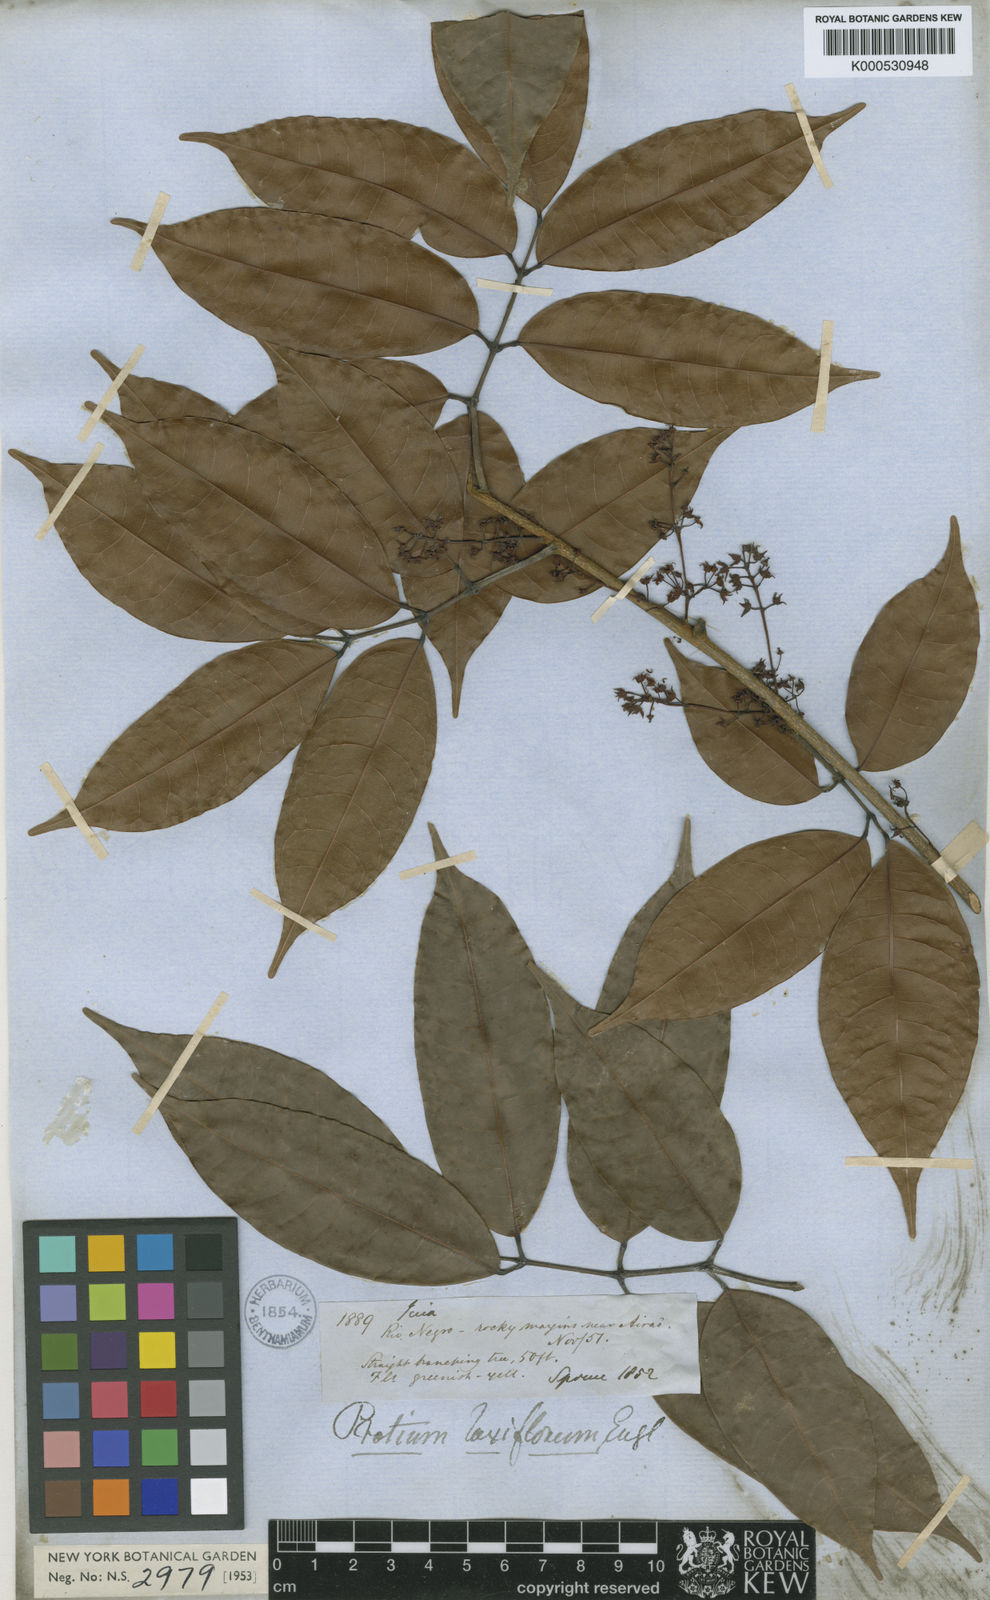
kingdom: Plantae
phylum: Tracheophyta
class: Magnoliopsida
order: Sapindales
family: Burseraceae
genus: Protium
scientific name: Protium laxiflorum
